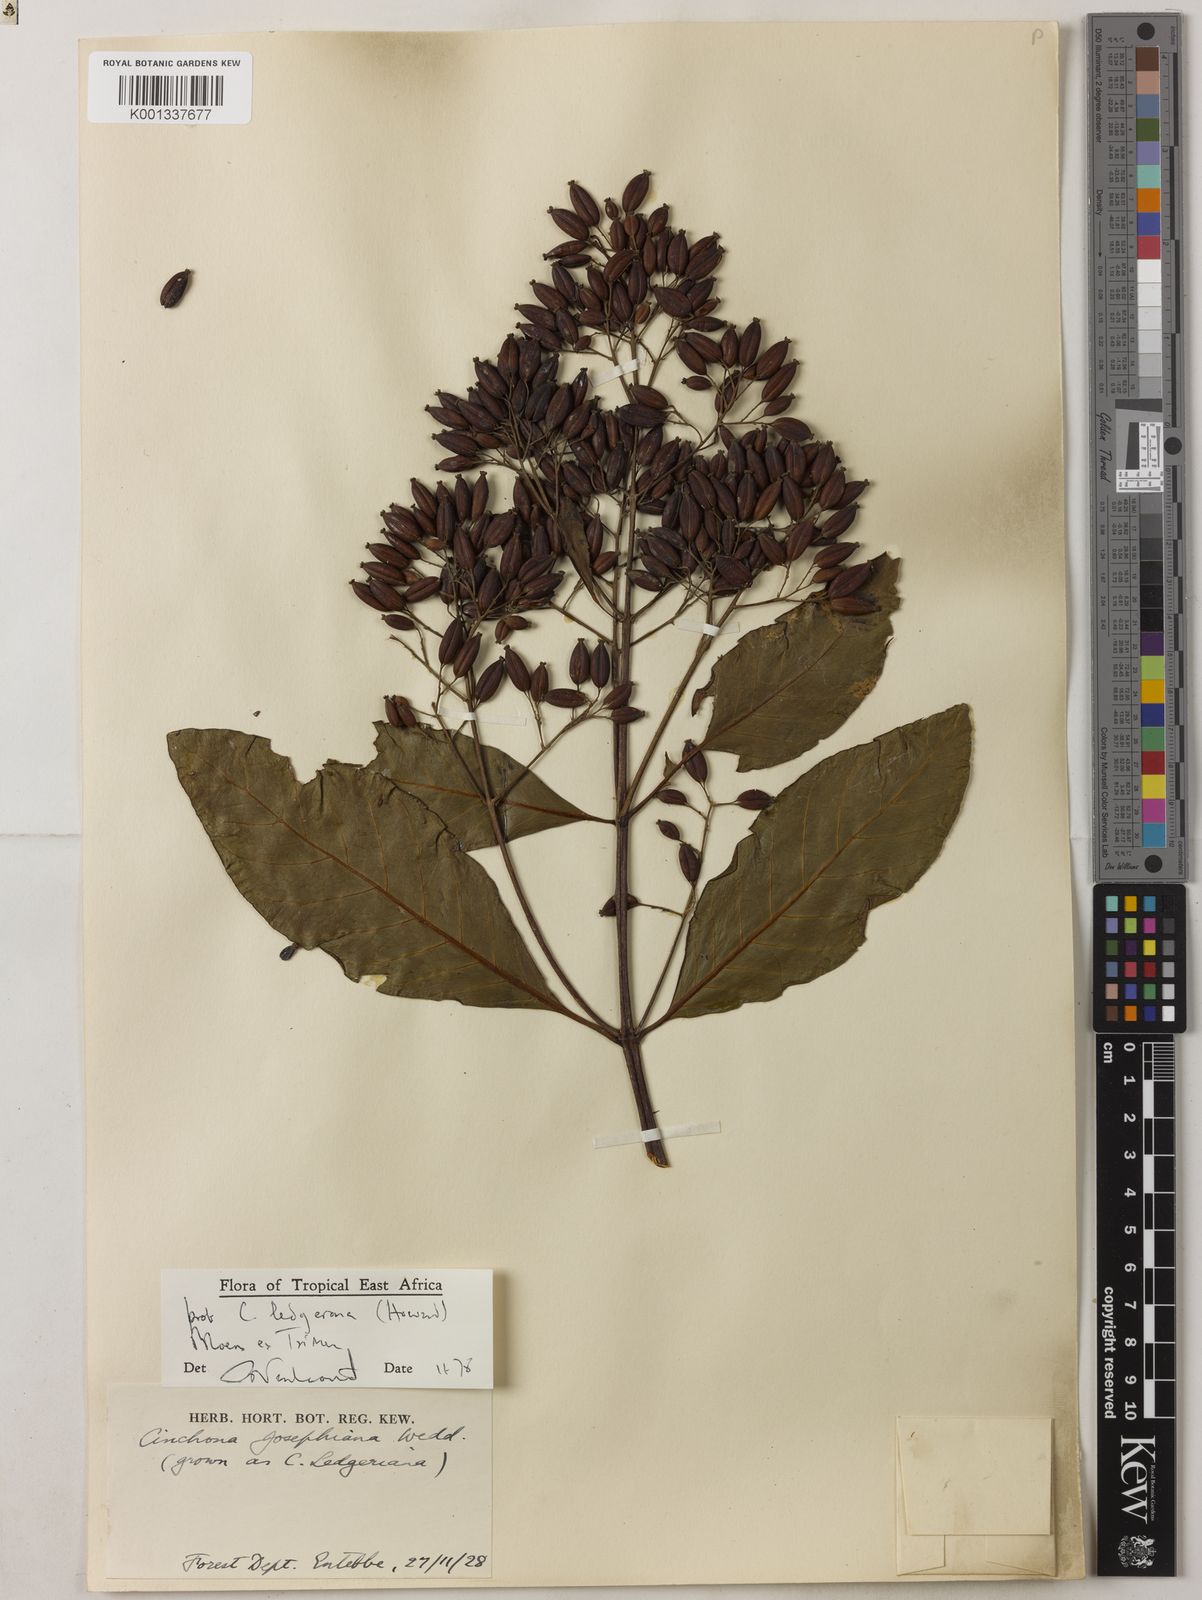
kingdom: Plantae
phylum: Tracheophyta
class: Magnoliopsida
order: Gentianales
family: Rubiaceae
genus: Cinchona
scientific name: Cinchona officinalis
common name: Lojabark
